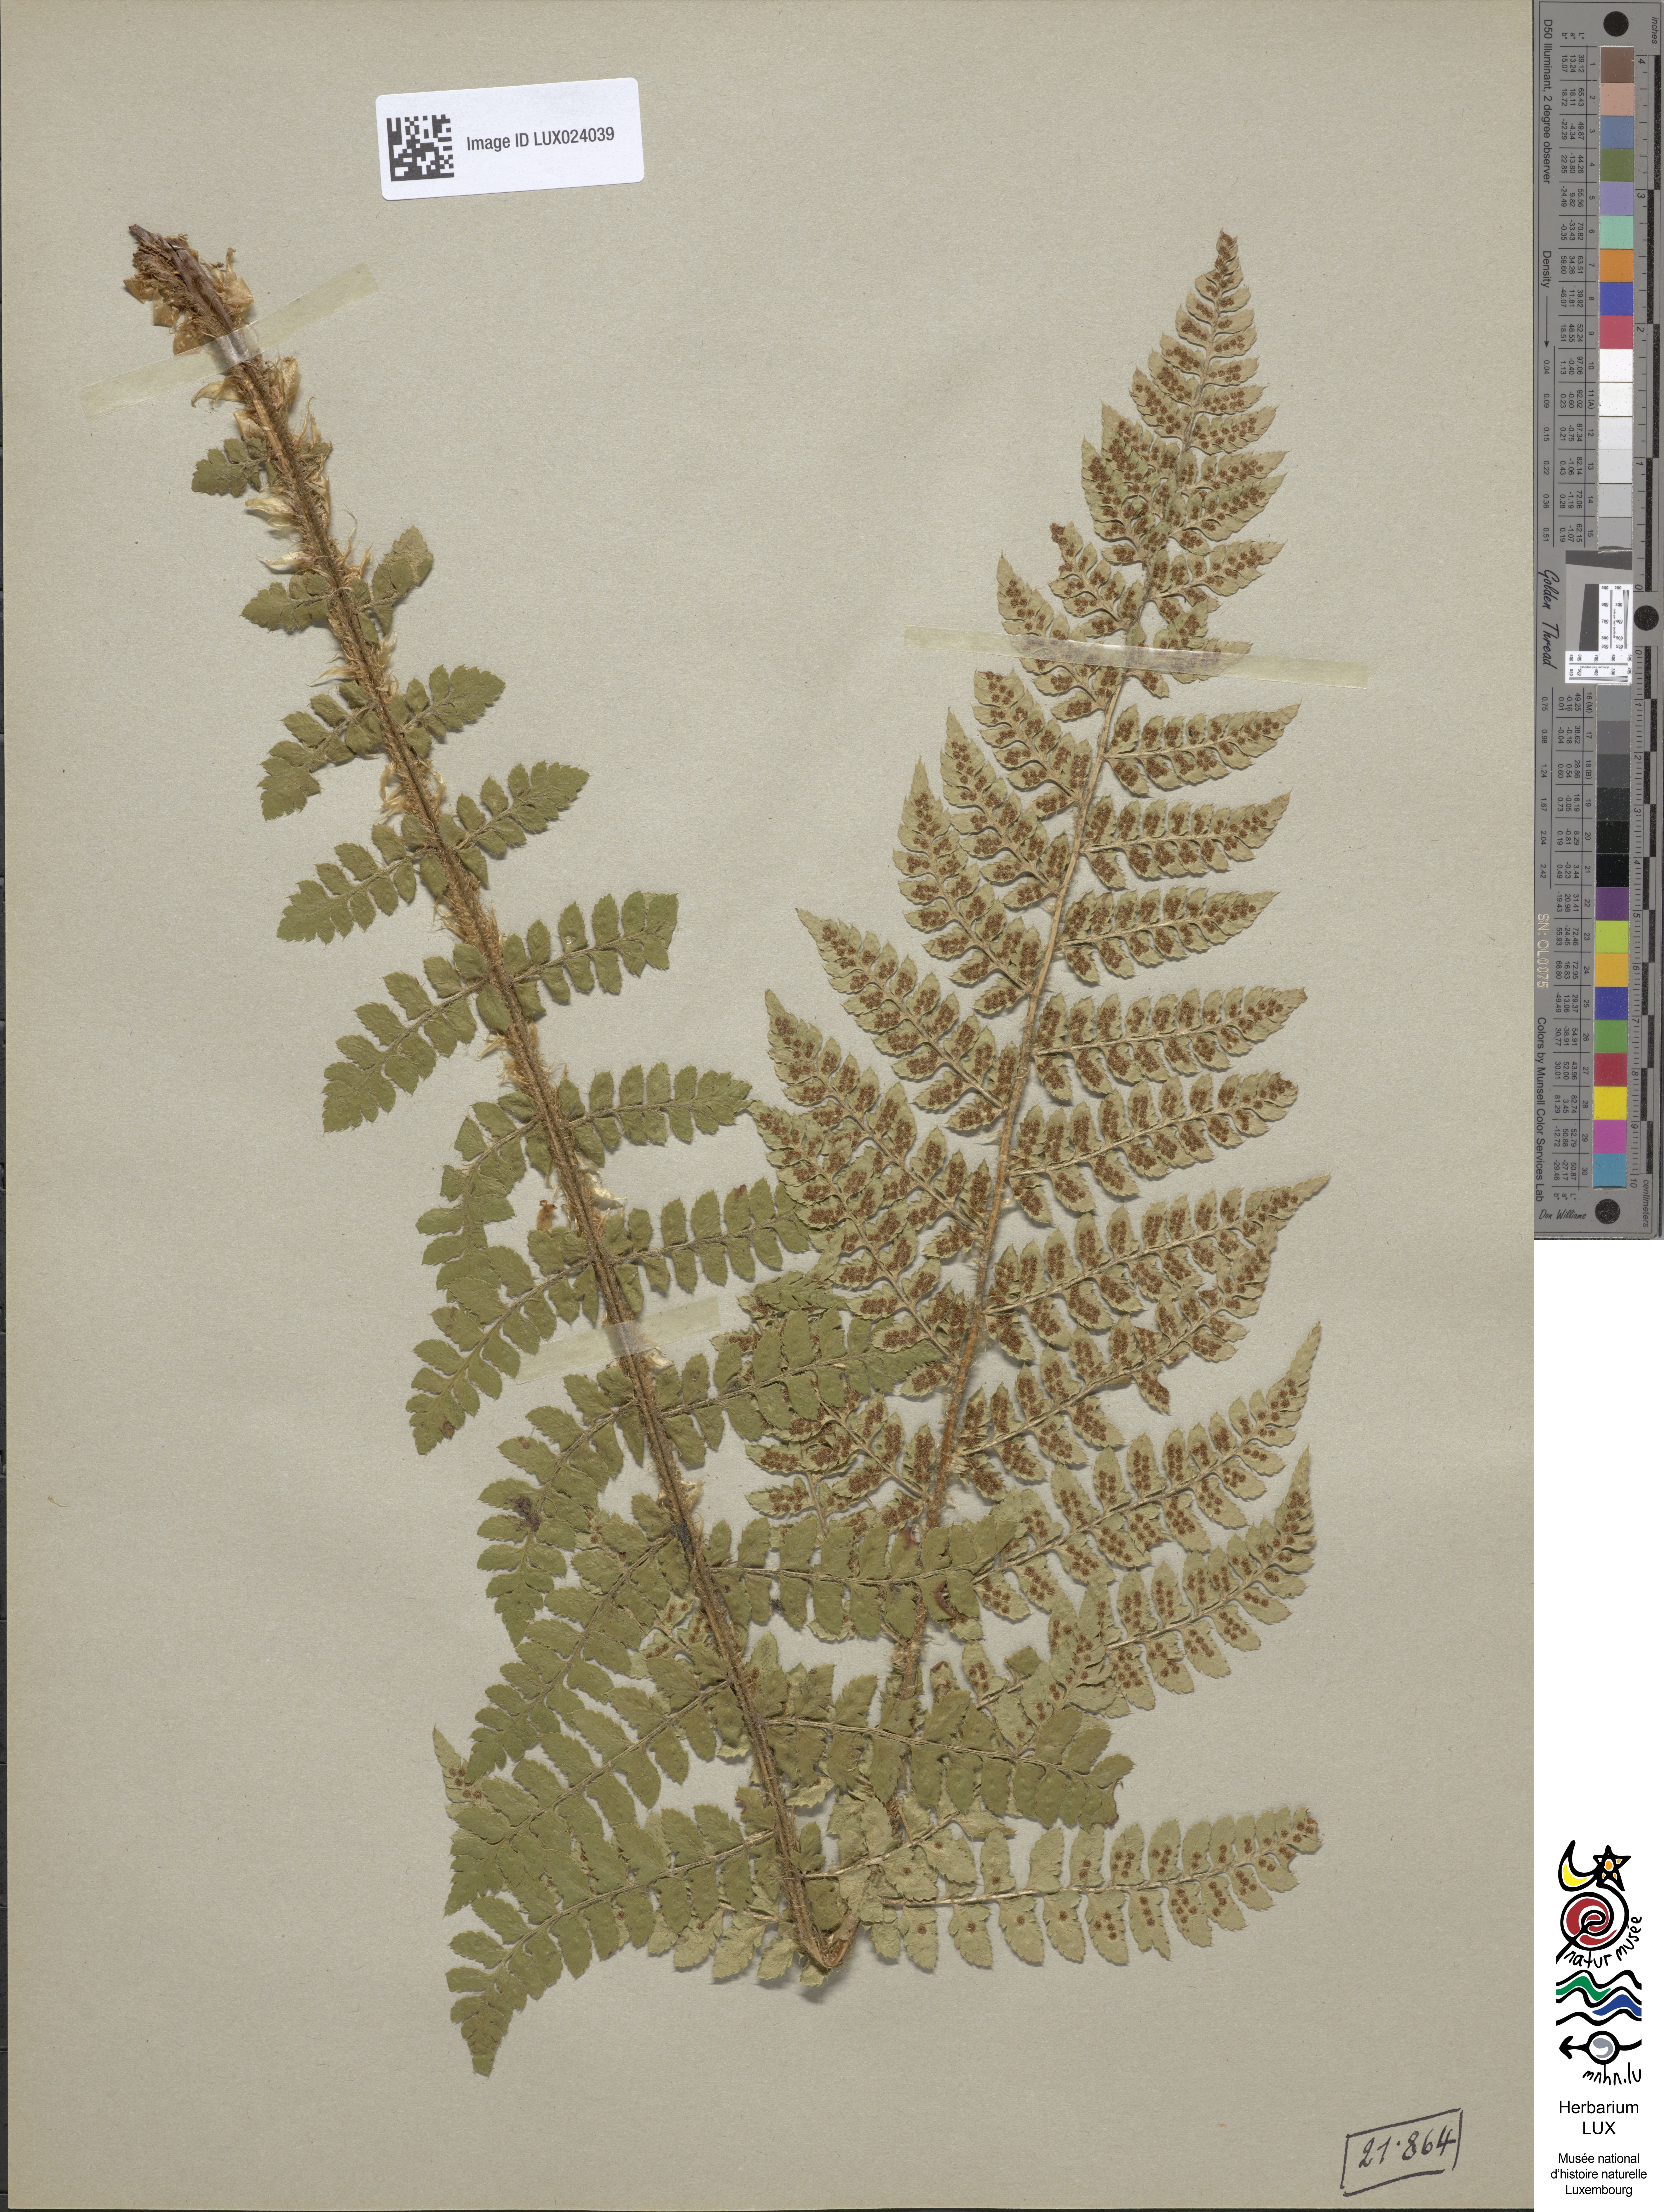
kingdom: Plantae
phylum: Tracheophyta
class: Polypodiopsida
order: Polypodiales
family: Dryopteridaceae
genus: Polystichum
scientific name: Polystichum braunii
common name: Braun's holly fern
